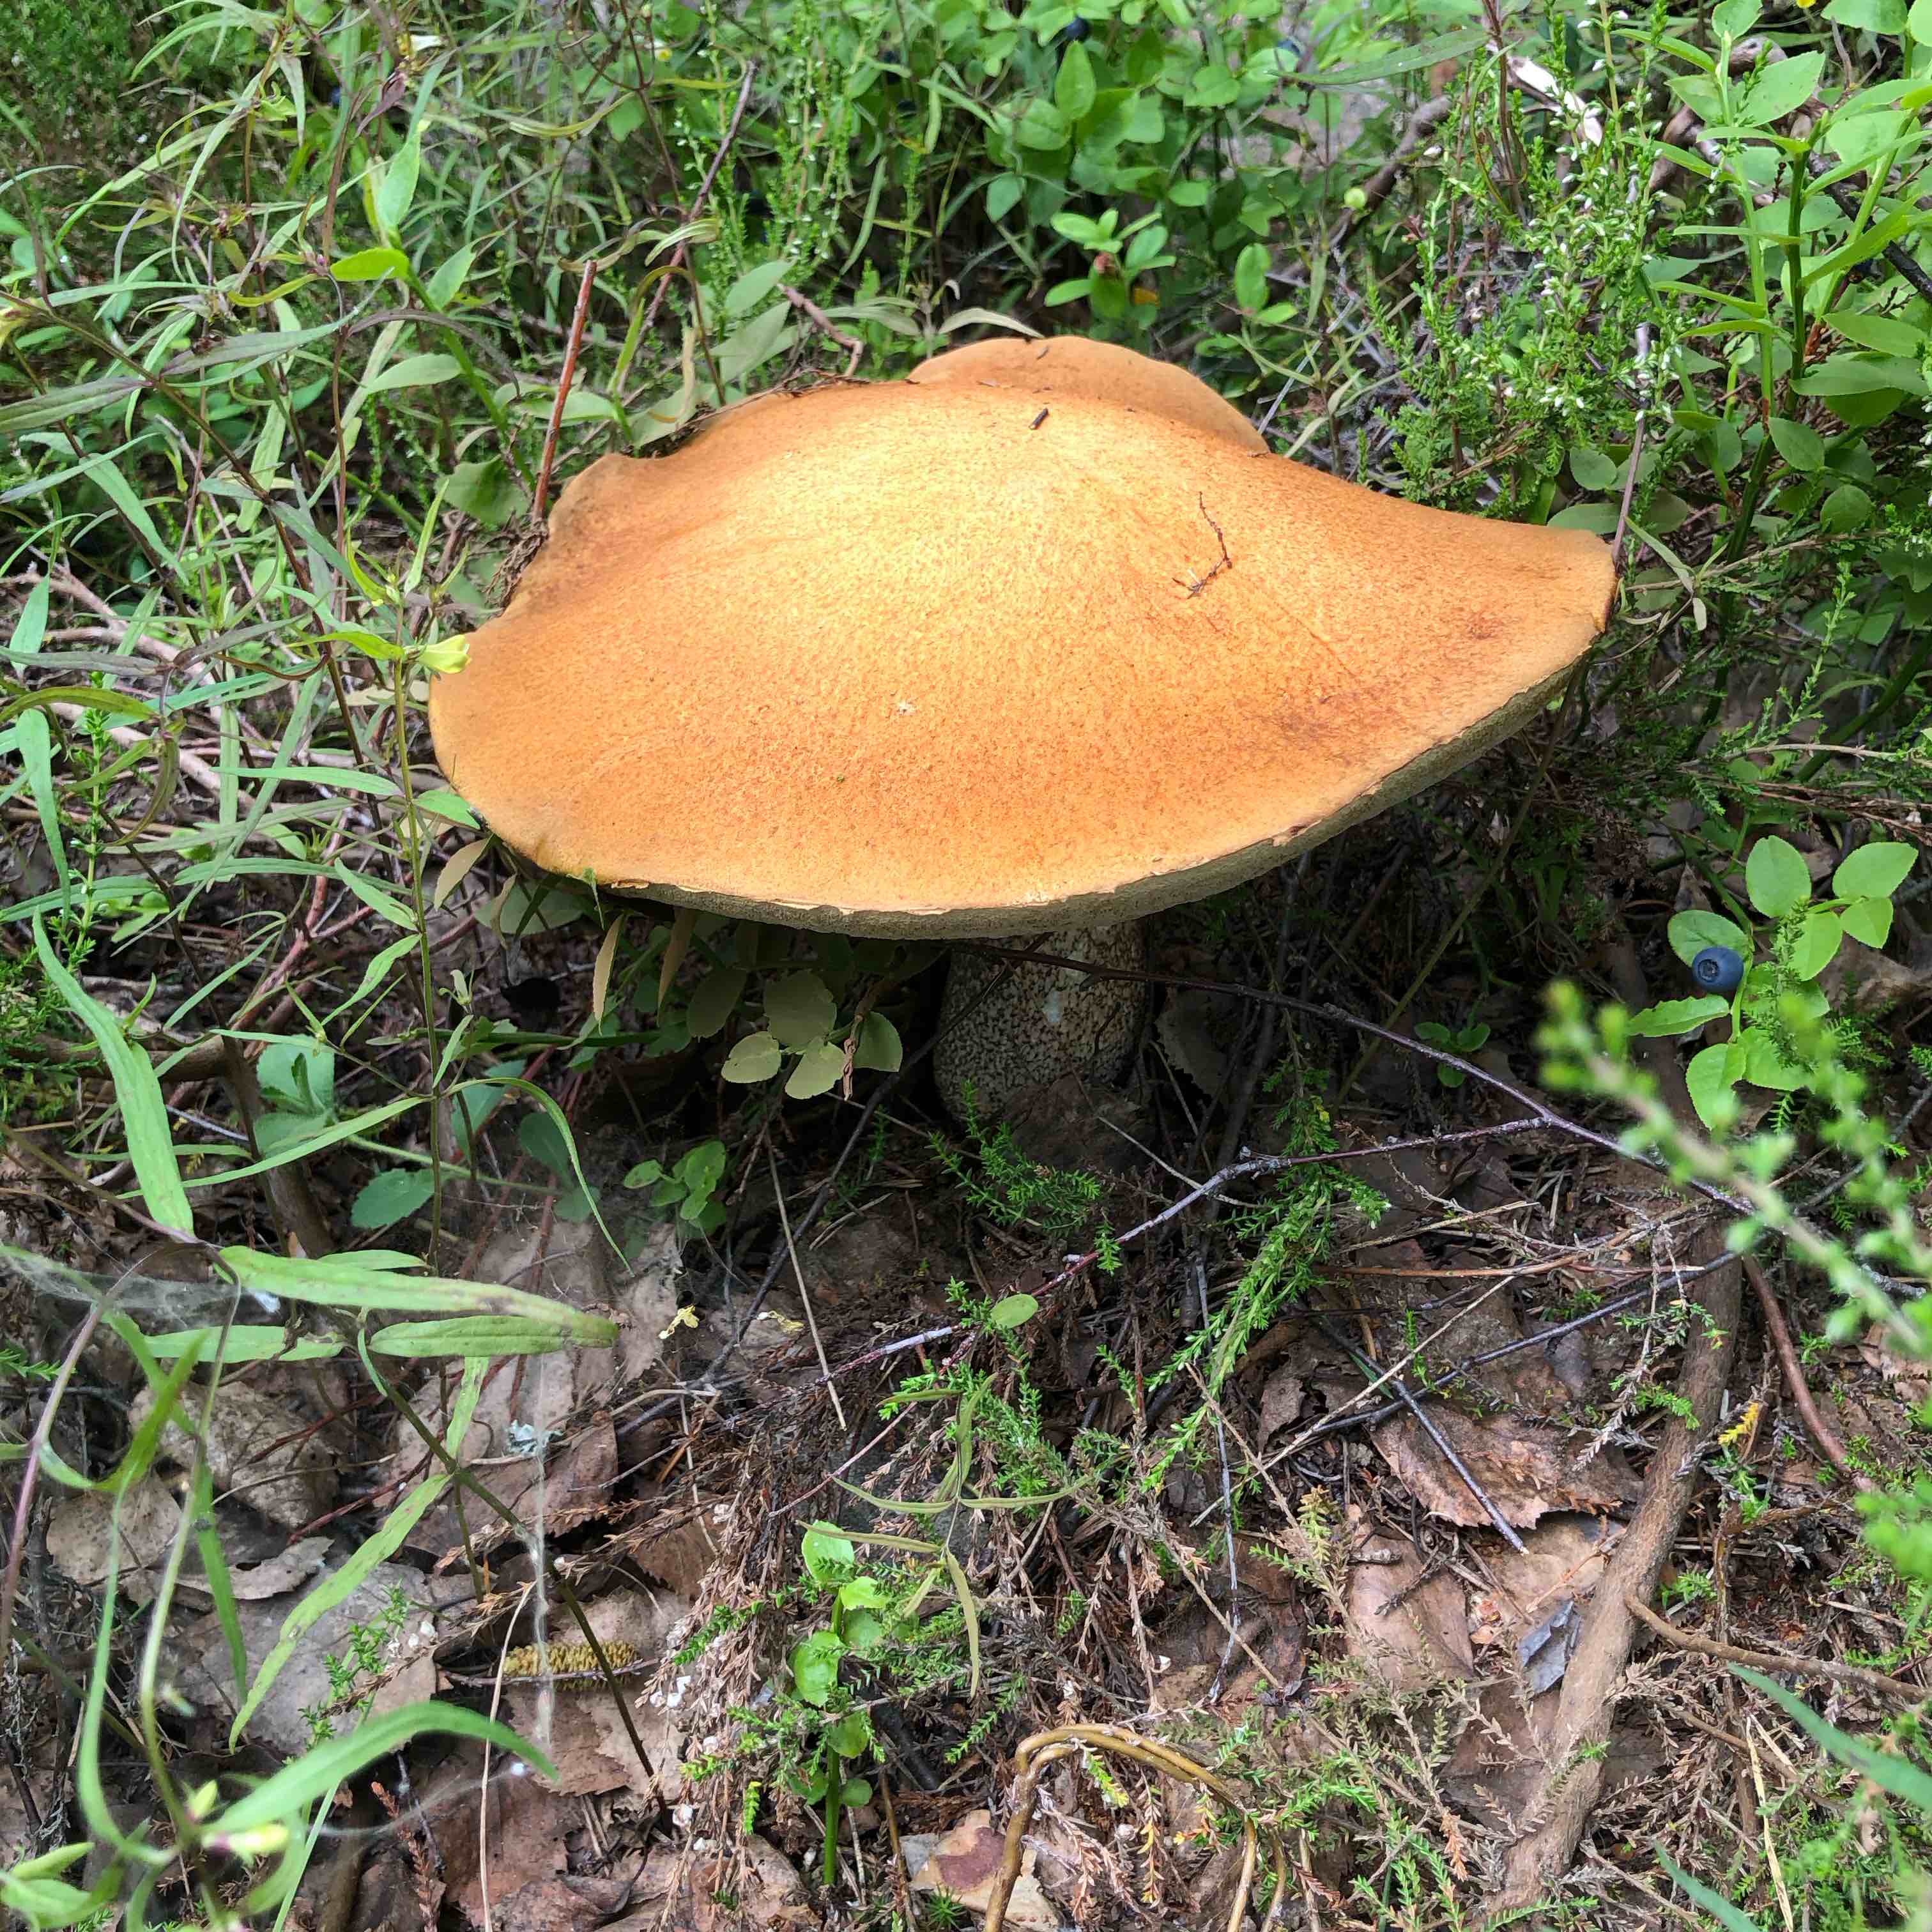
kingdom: Fungi
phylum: Basidiomycota
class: Agaricomycetes
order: Boletales
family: Boletaceae
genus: Leccinum
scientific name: Leccinum versipelle
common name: orange skælrørhat
